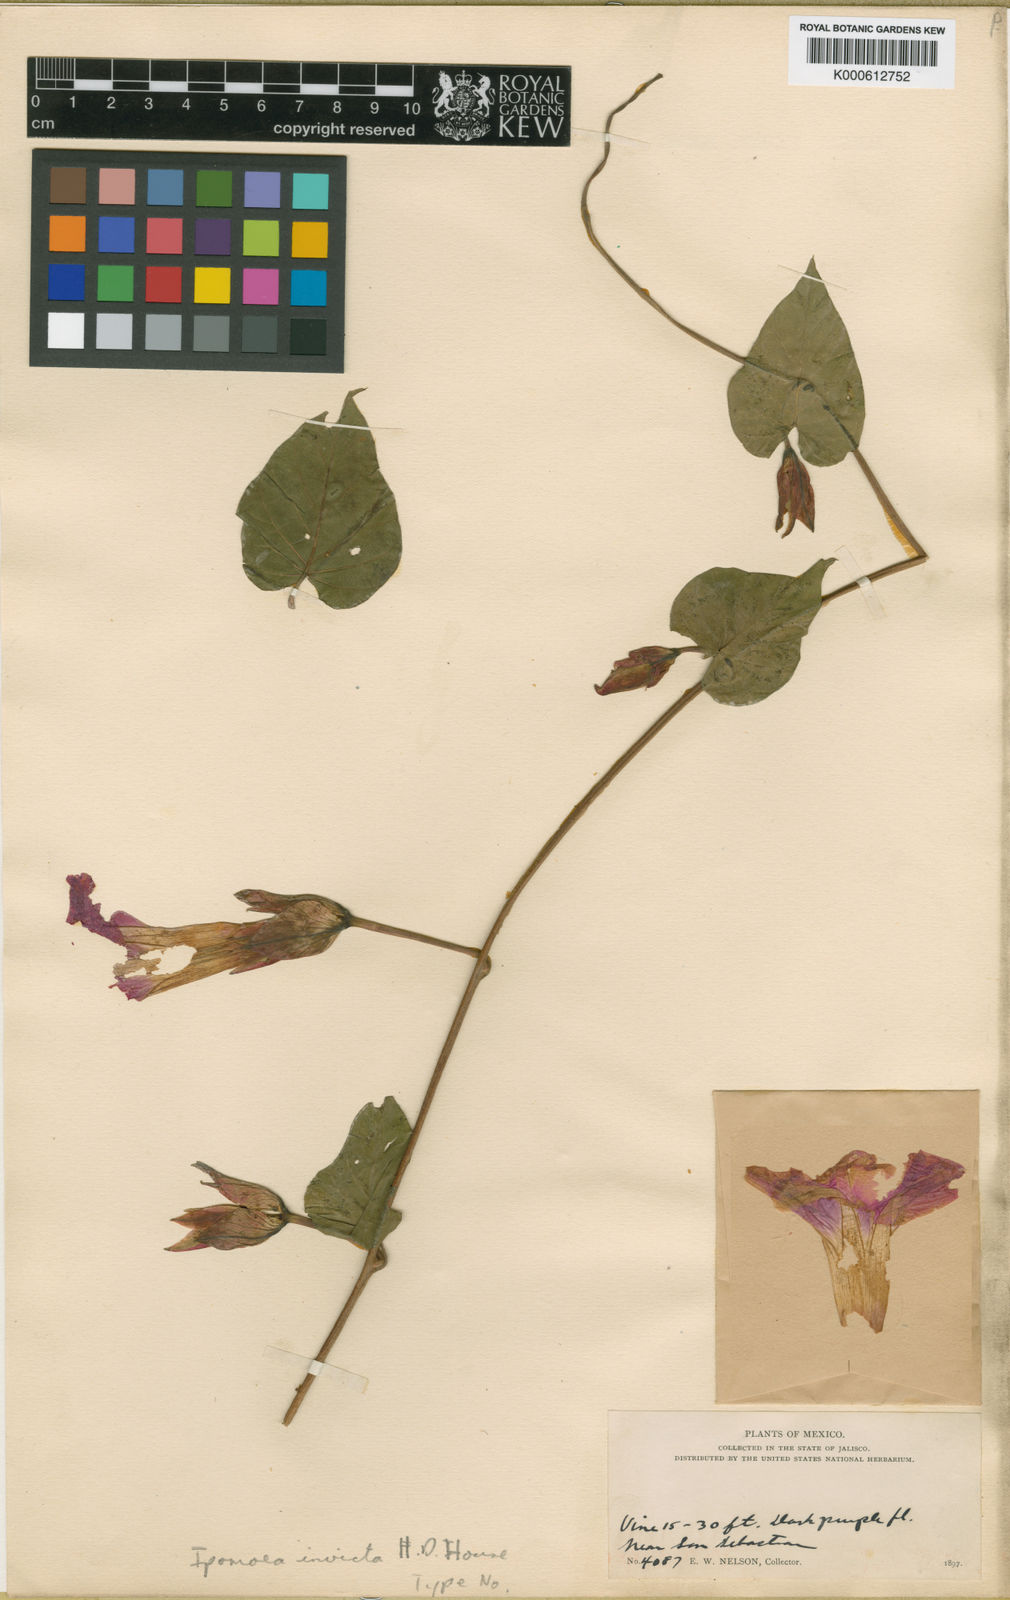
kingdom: Plantae
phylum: Tracheophyta
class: Magnoliopsida
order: Solanales
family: Convolvulaceae
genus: Ipomoea
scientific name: Ipomoea invicta
